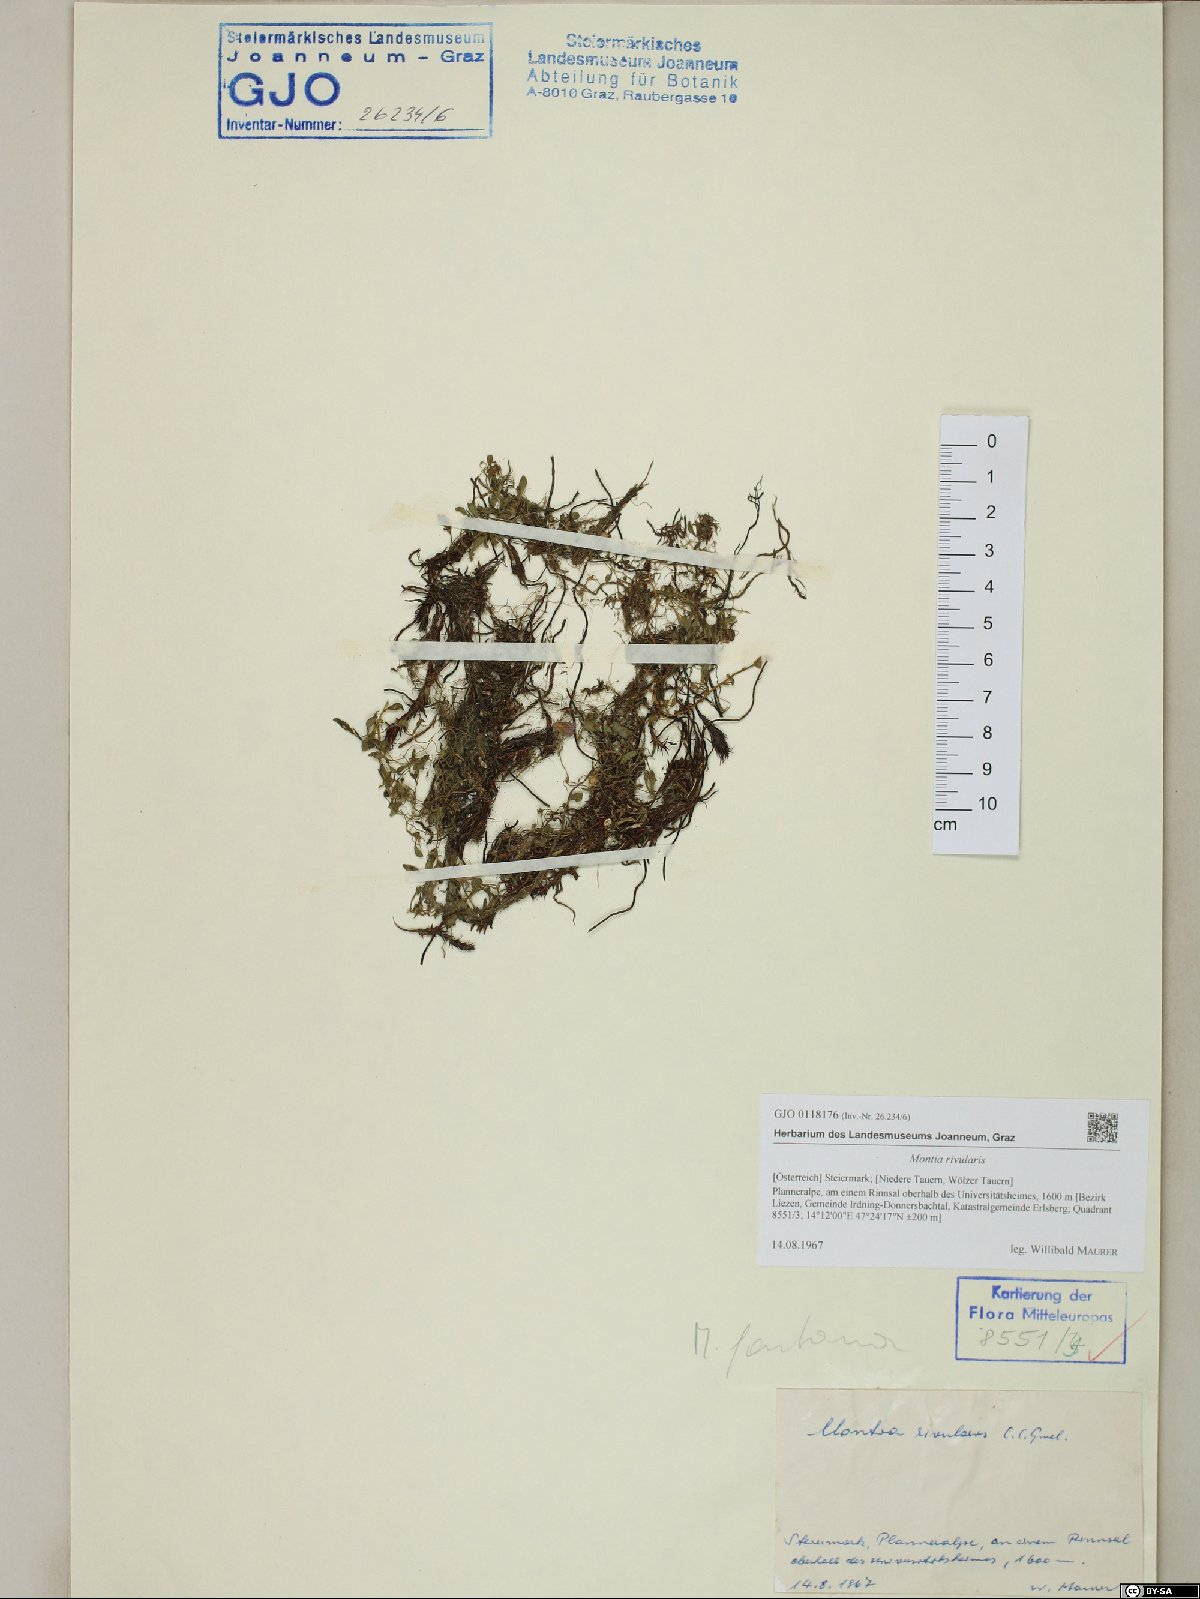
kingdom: Plantae
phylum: Tracheophyta
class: Magnoliopsida
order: Caryophyllales
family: Montiaceae
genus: Montia
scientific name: Montia fontana
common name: Blinks
